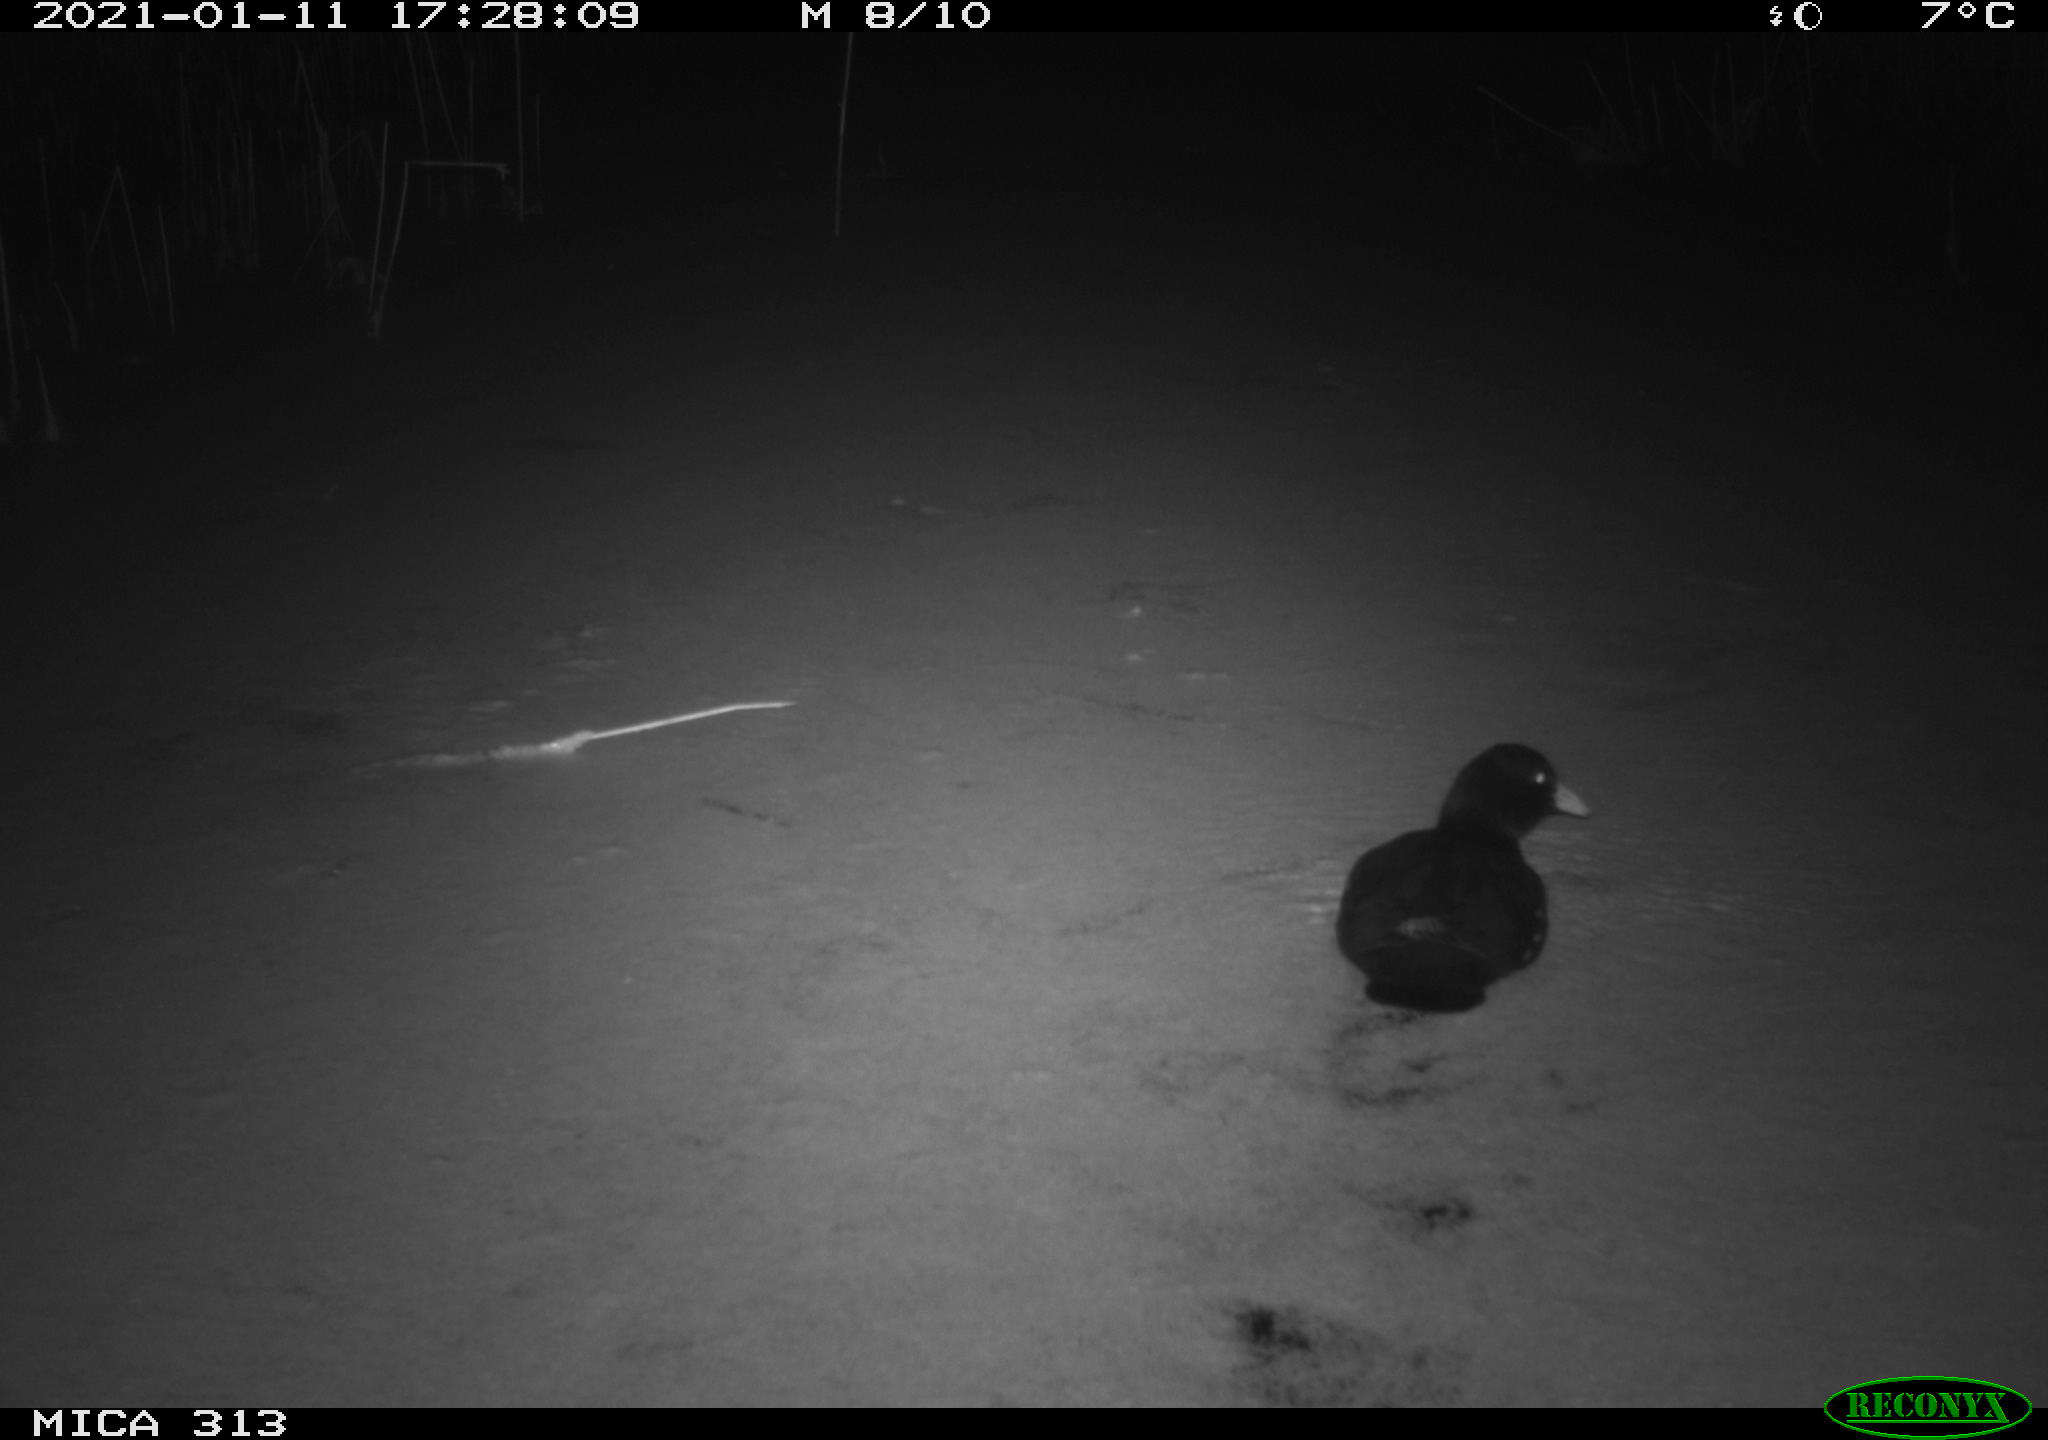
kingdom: Animalia
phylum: Chordata
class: Aves
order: Gruiformes
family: Rallidae
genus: Gallinula
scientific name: Gallinula chloropus
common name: Common moorhen
